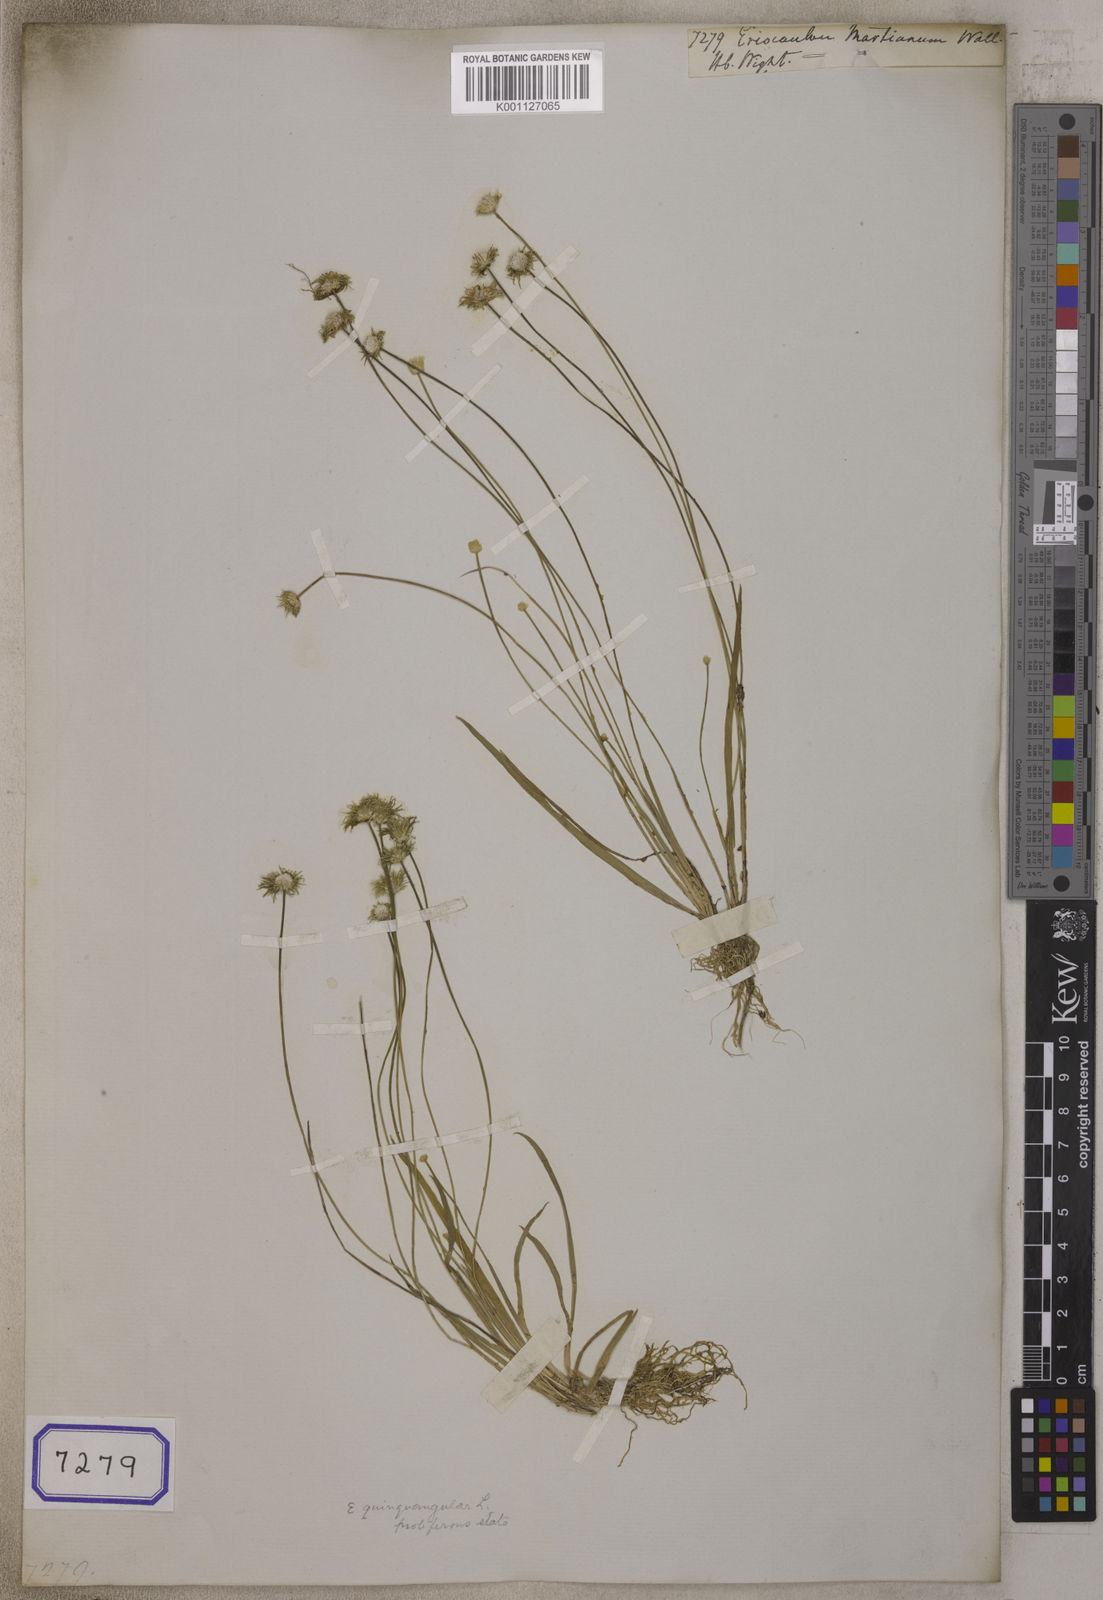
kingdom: Plantae
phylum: Tracheophyta
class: Liliopsida
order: Poales
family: Eriocaulaceae
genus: Eriocaulon
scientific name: Eriocaulon
